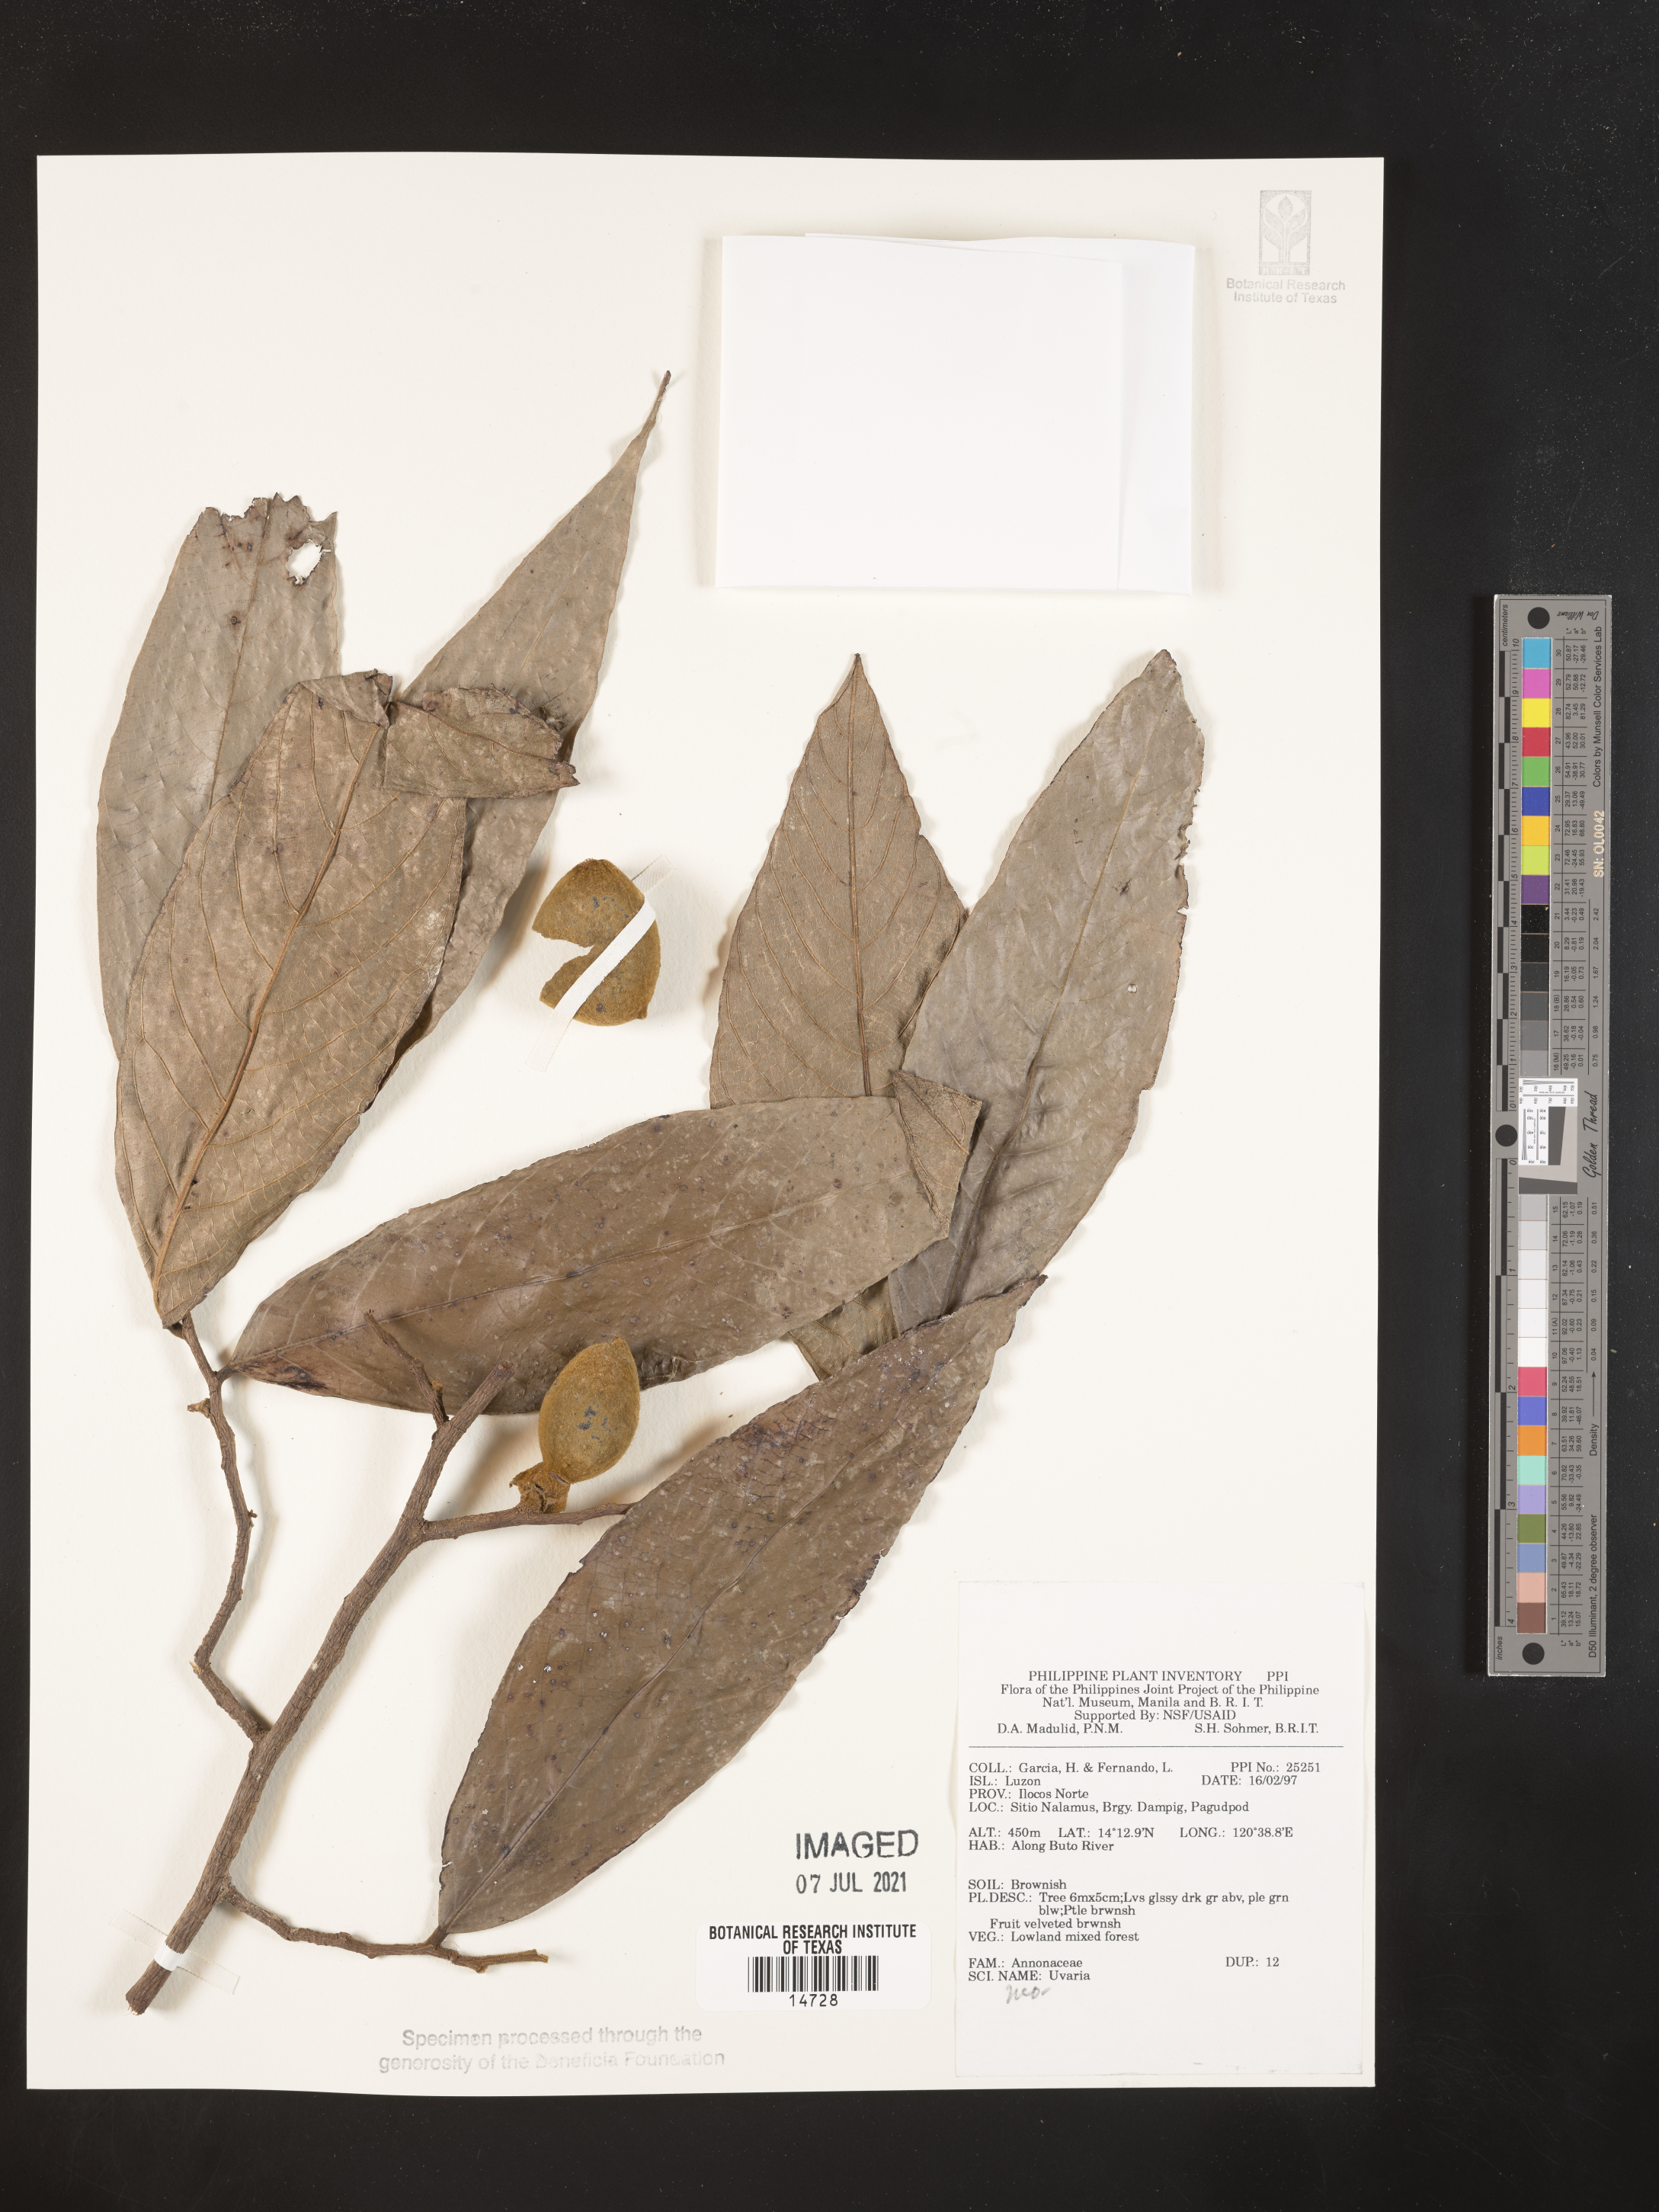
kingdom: Plantae
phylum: Tracheophyta
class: Magnoliopsida
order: Magnoliales
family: Annonaceae
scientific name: Annonaceae
